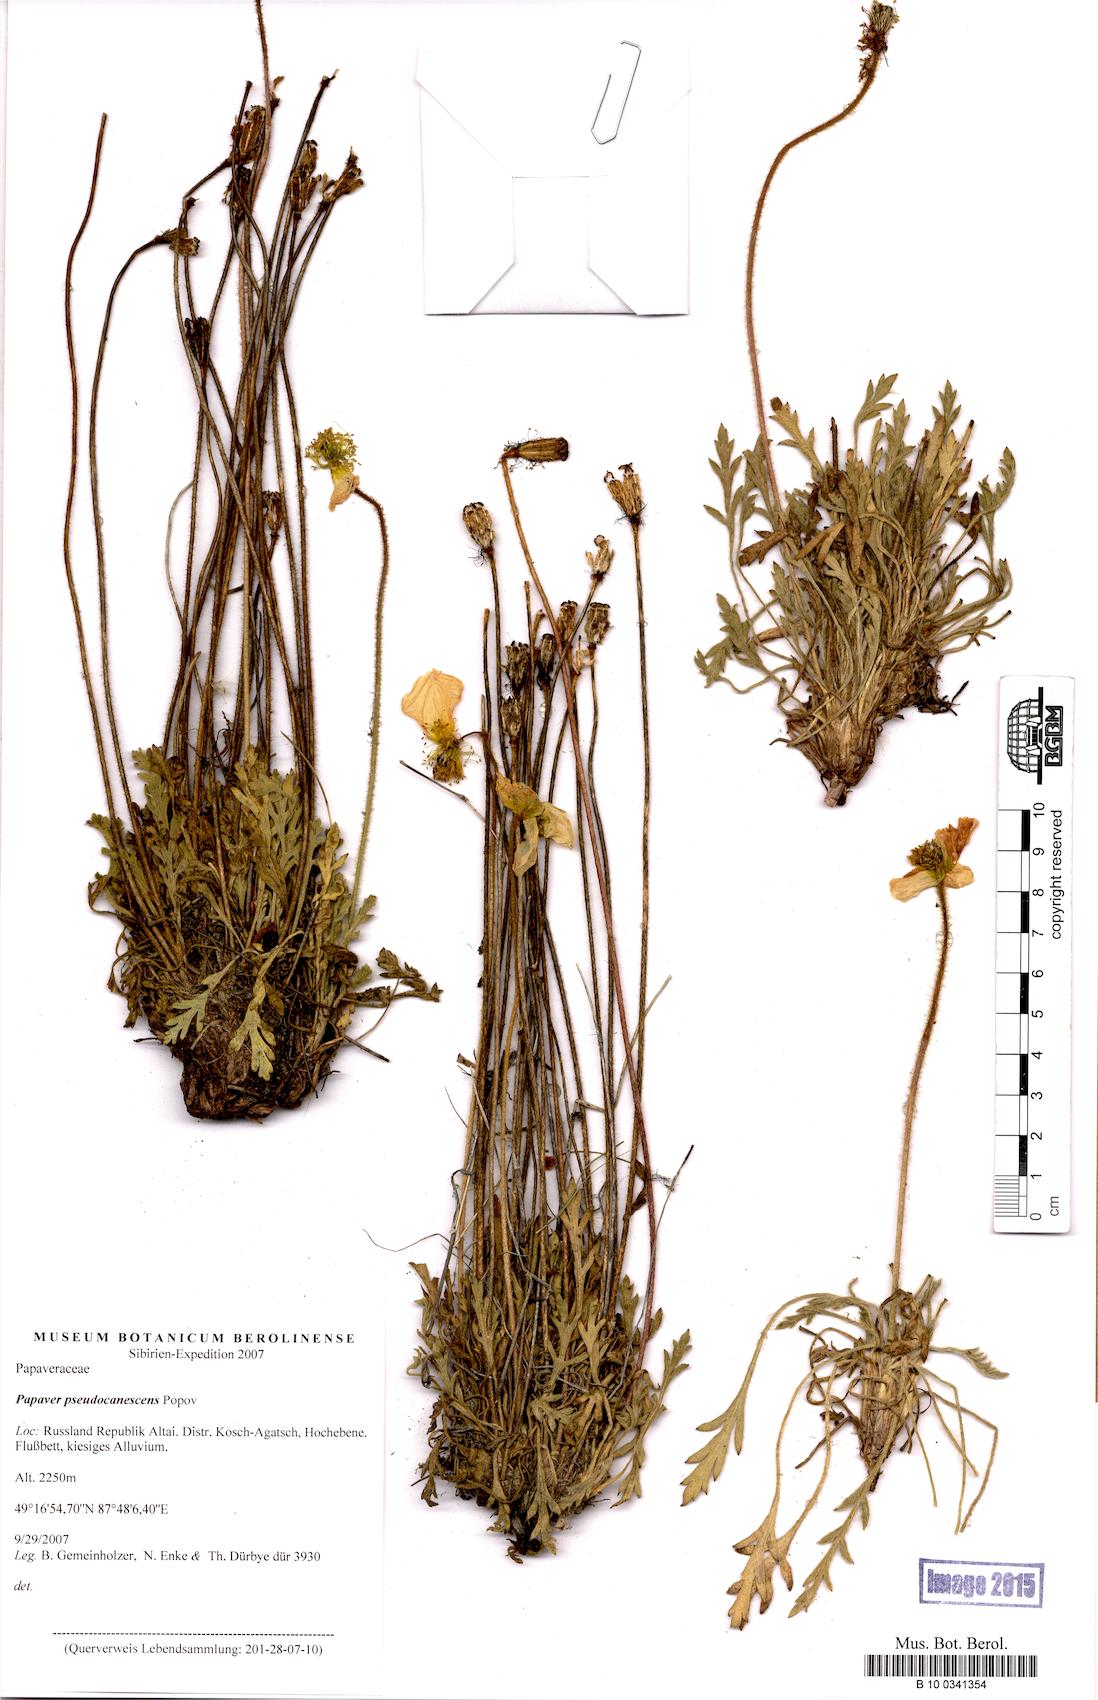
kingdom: Plantae
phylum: Tracheophyta
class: Magnoliopsida
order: Ranunculales
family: Papaveraceae
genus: Papaver
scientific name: Papaver canescens
